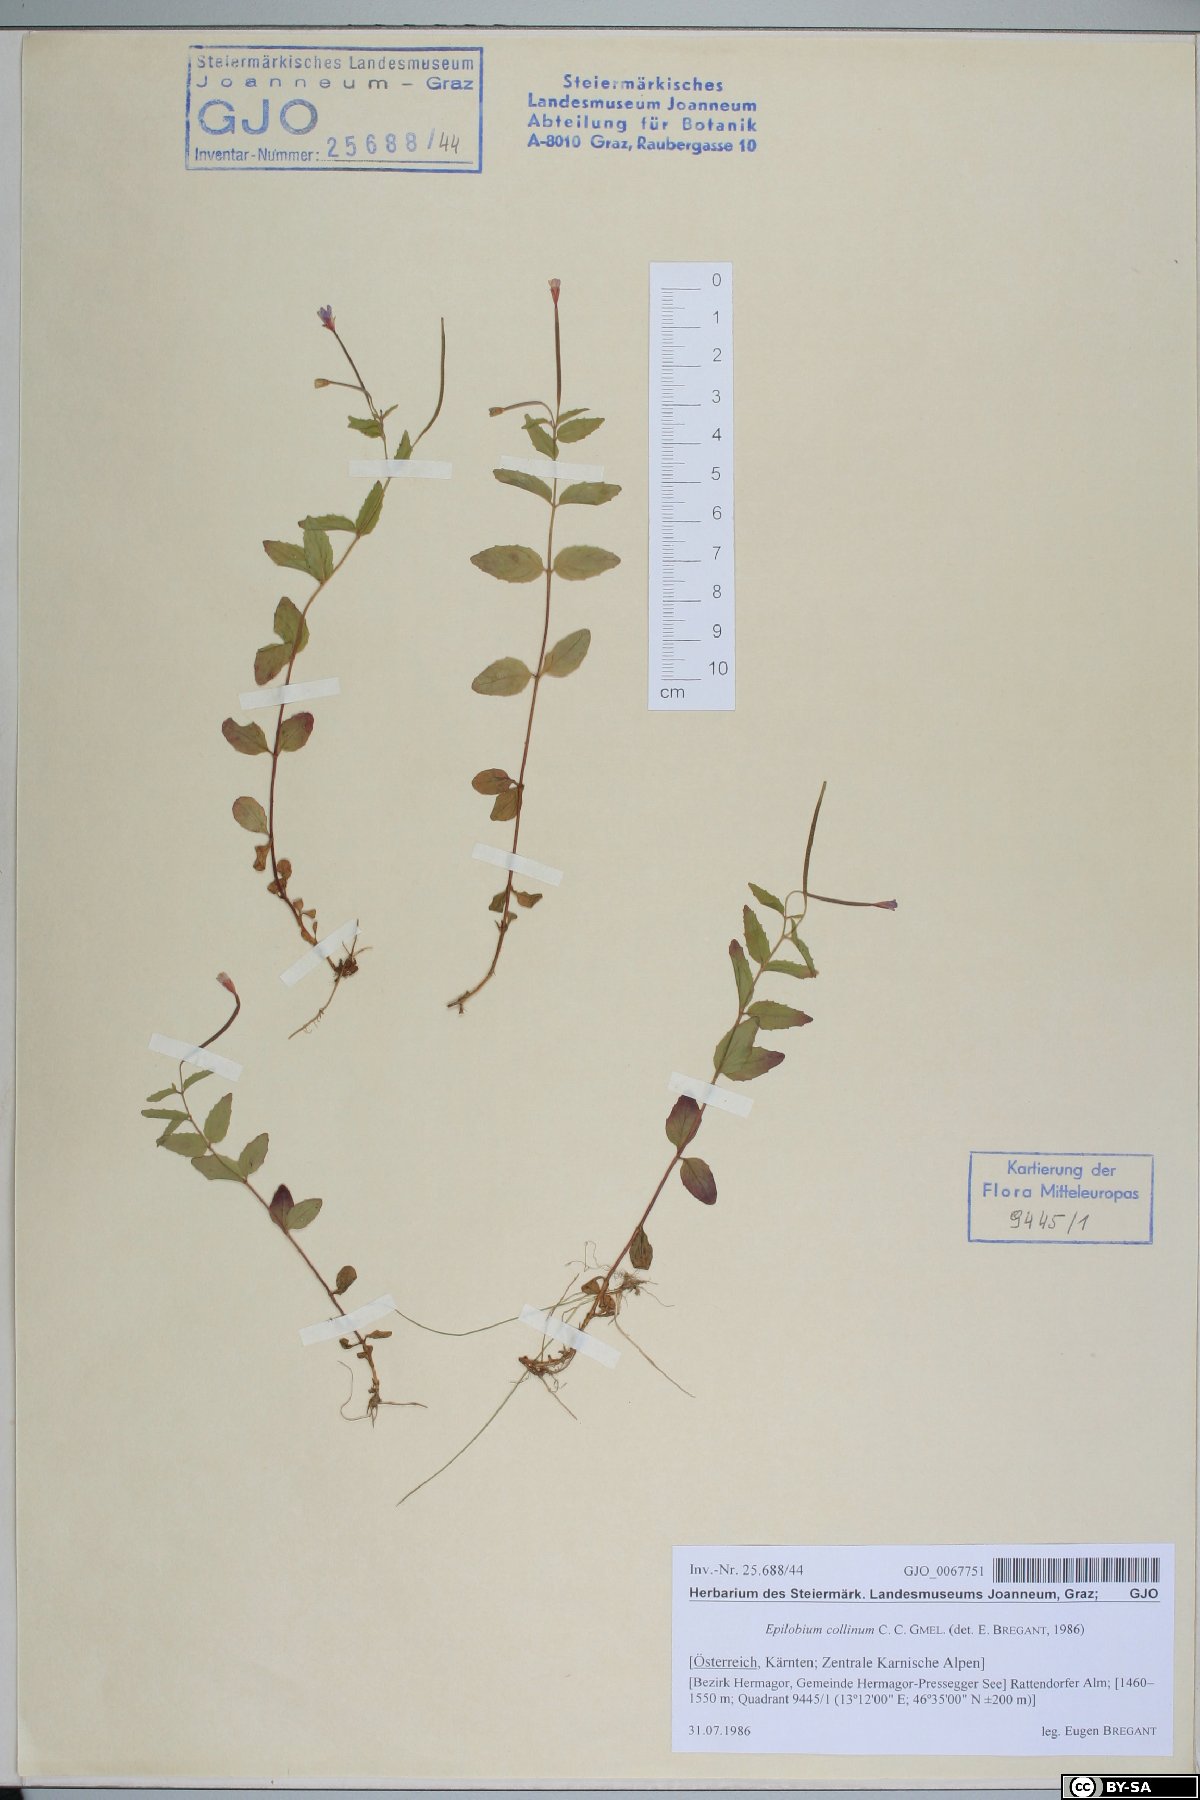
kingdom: Plantae
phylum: Tracheophyta
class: Magnoliopsida
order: Myrtales
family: Onagraceae
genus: Epilobium
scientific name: Epilobium collinum
